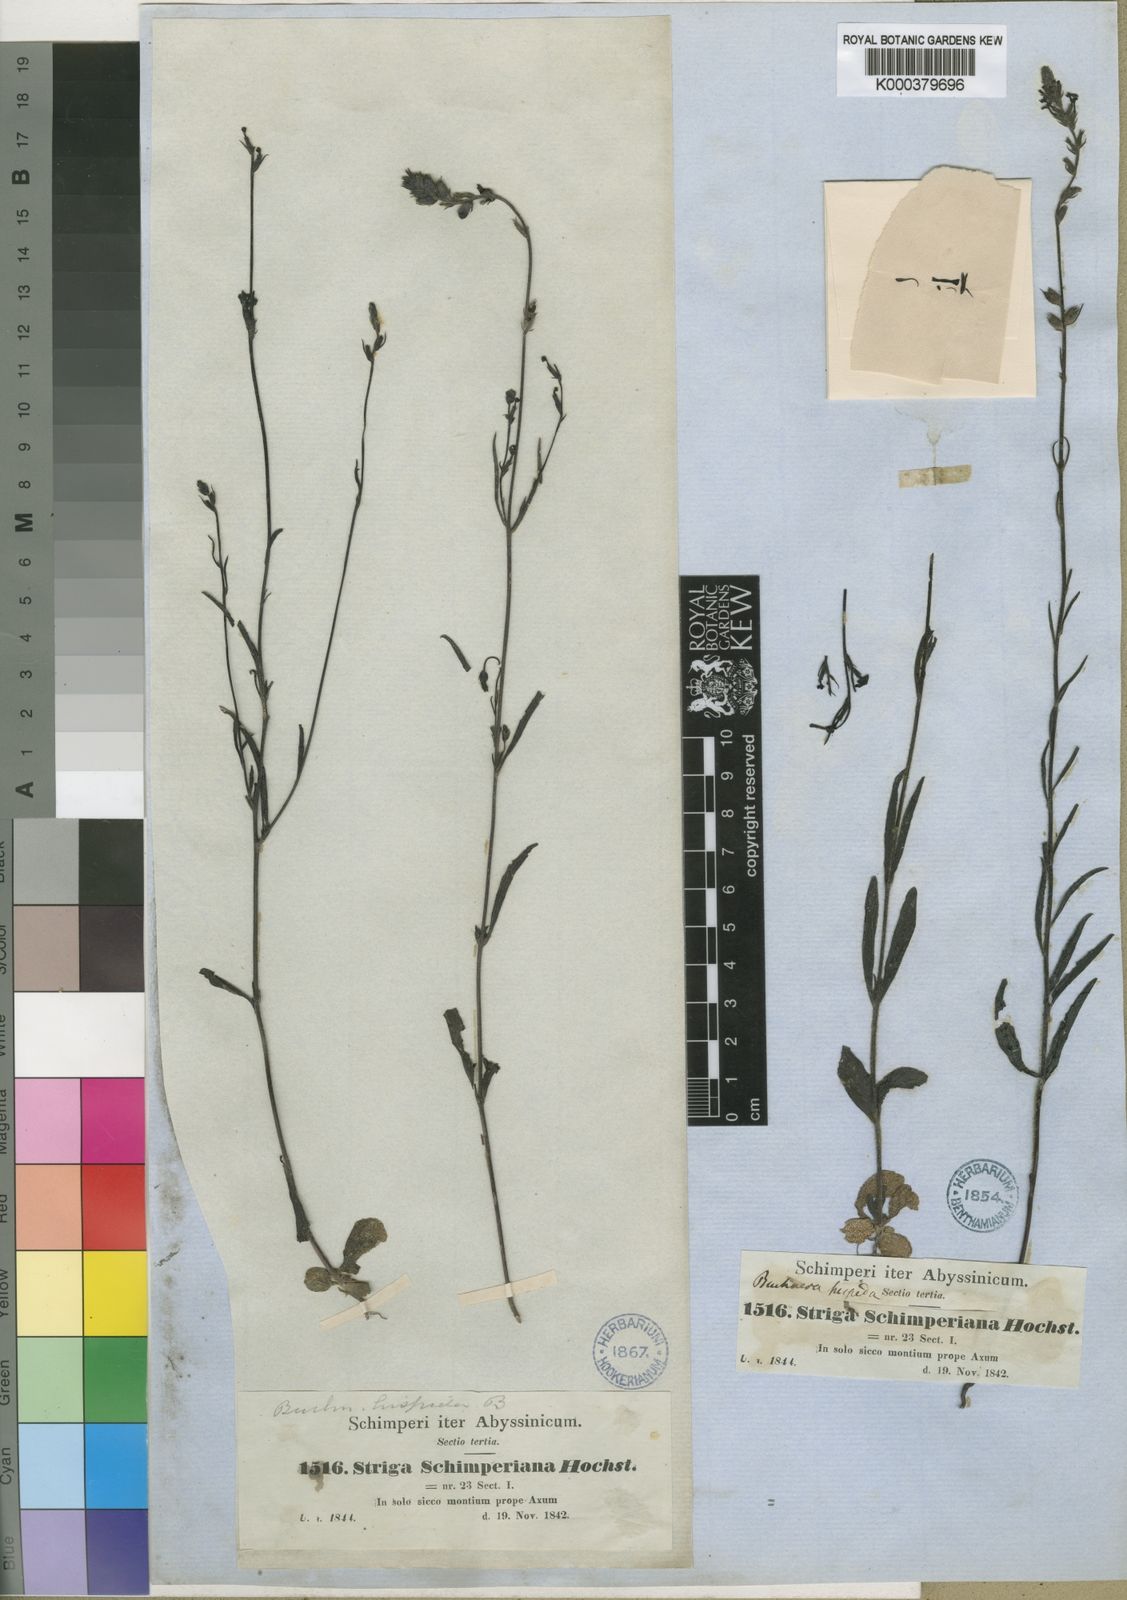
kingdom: Plantae
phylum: Tracheophyta
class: Magnoliopsida
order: Lamiales
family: Orobanchaceae
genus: Buchnera
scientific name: Buchnera hispida
